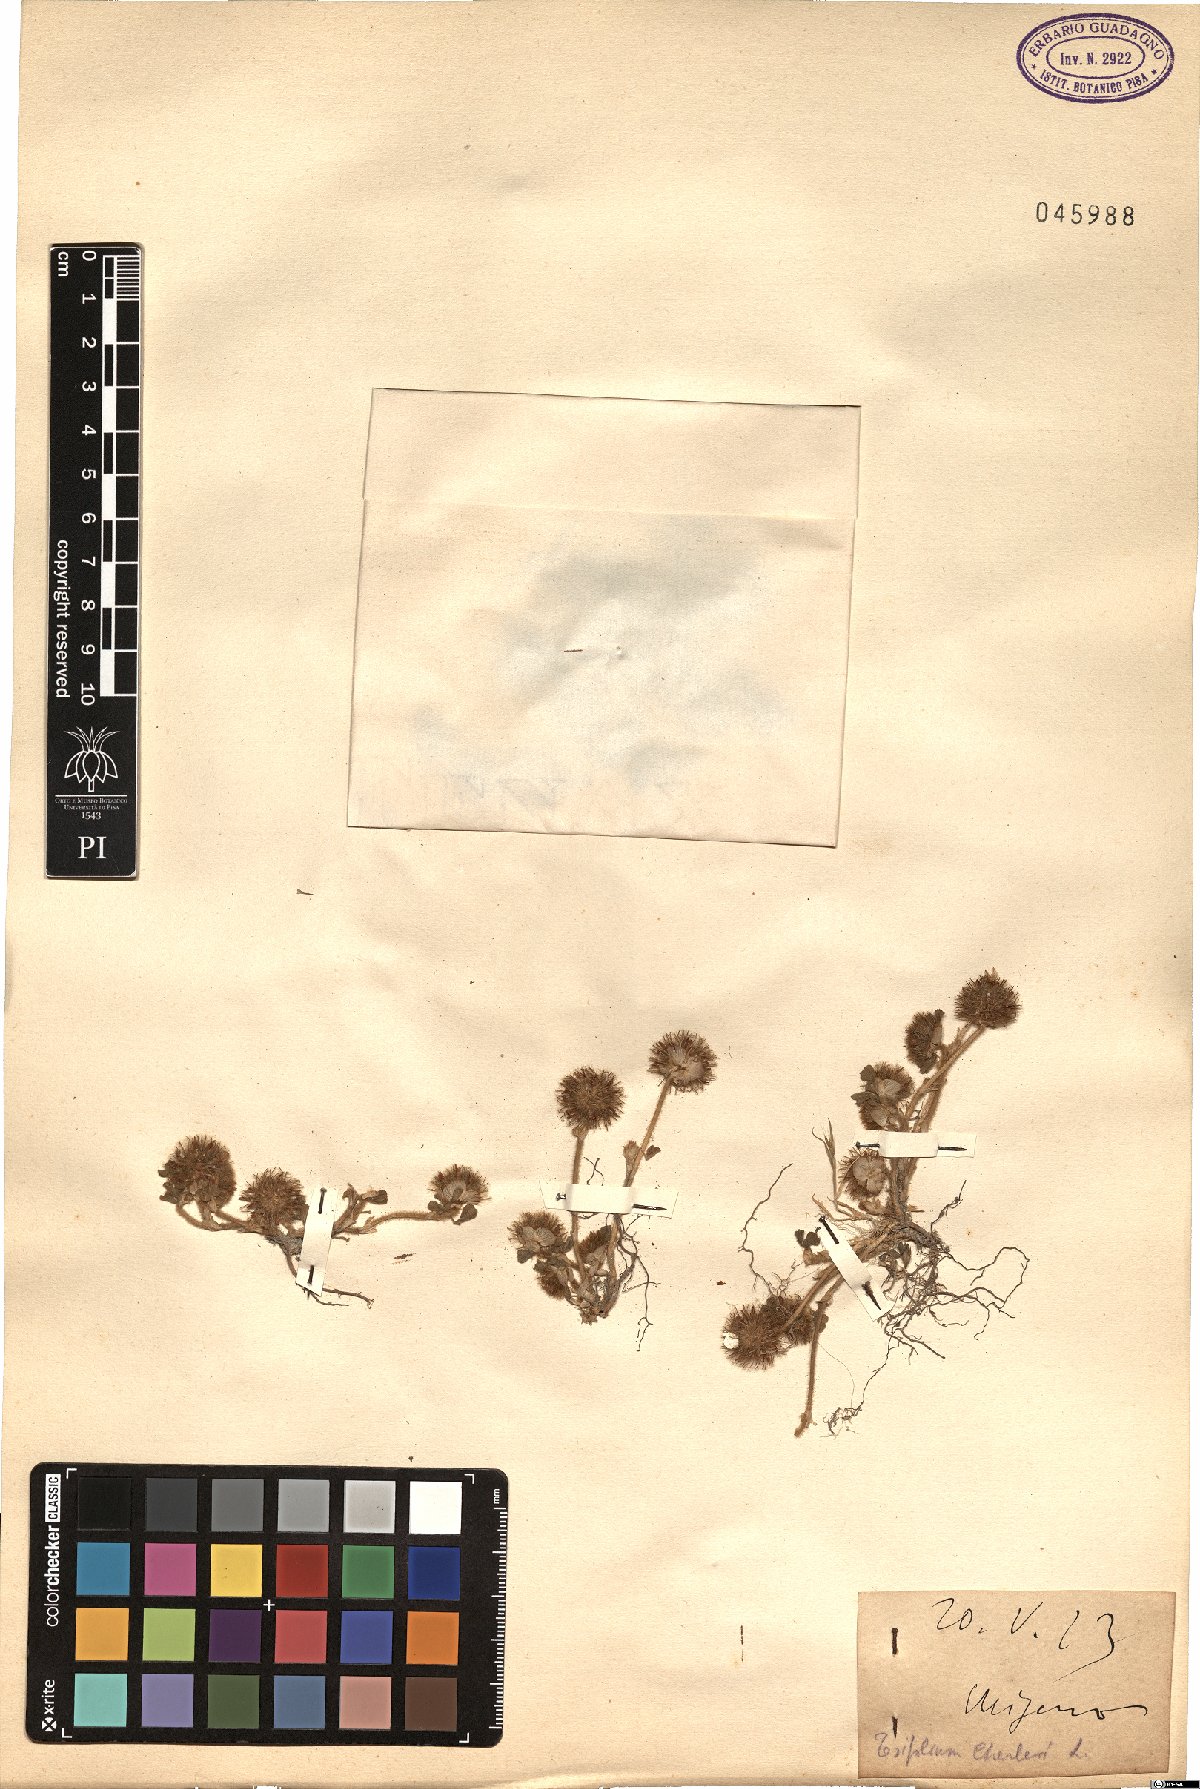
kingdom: Plantae
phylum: Tracheophyta
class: Magnoliopsida
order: Fabales
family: Fabaceae
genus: Trifolium
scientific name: Trifolium cherleri
